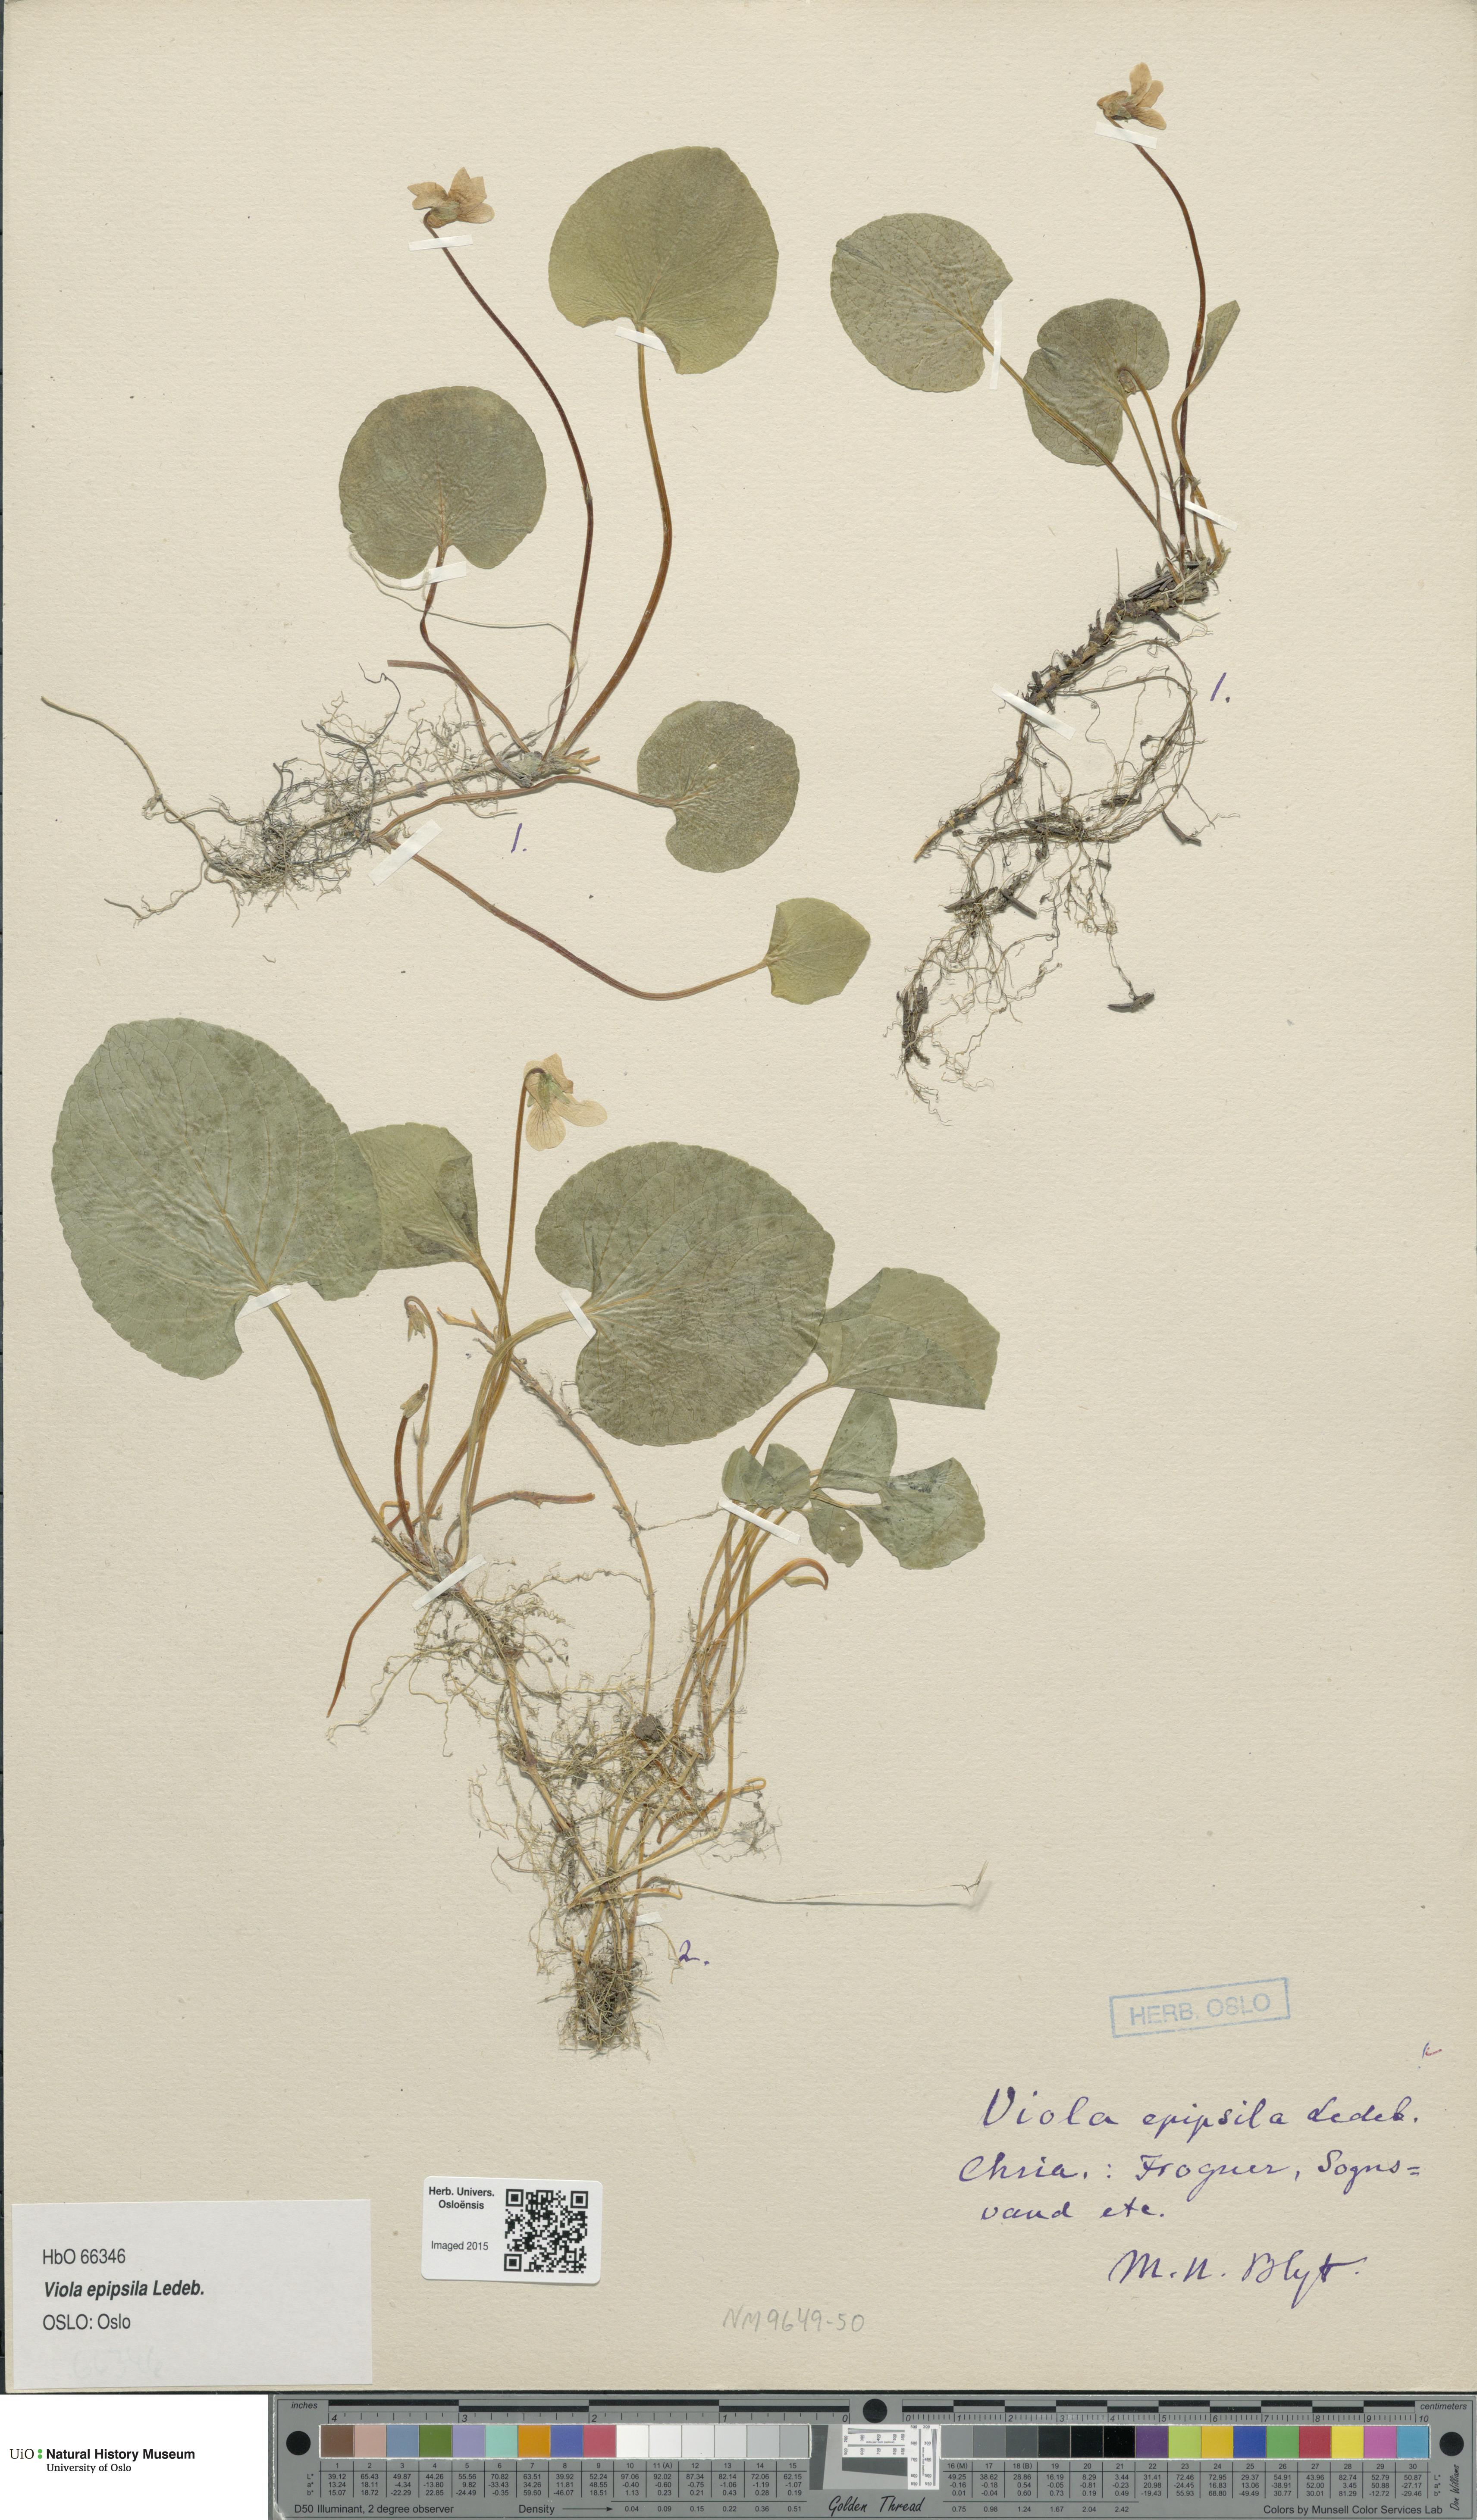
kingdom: Plantae
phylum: Tracheophyta
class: Magnoliopsida
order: Malpighiales
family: Violaceae
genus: Viola
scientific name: Viola epipsila
